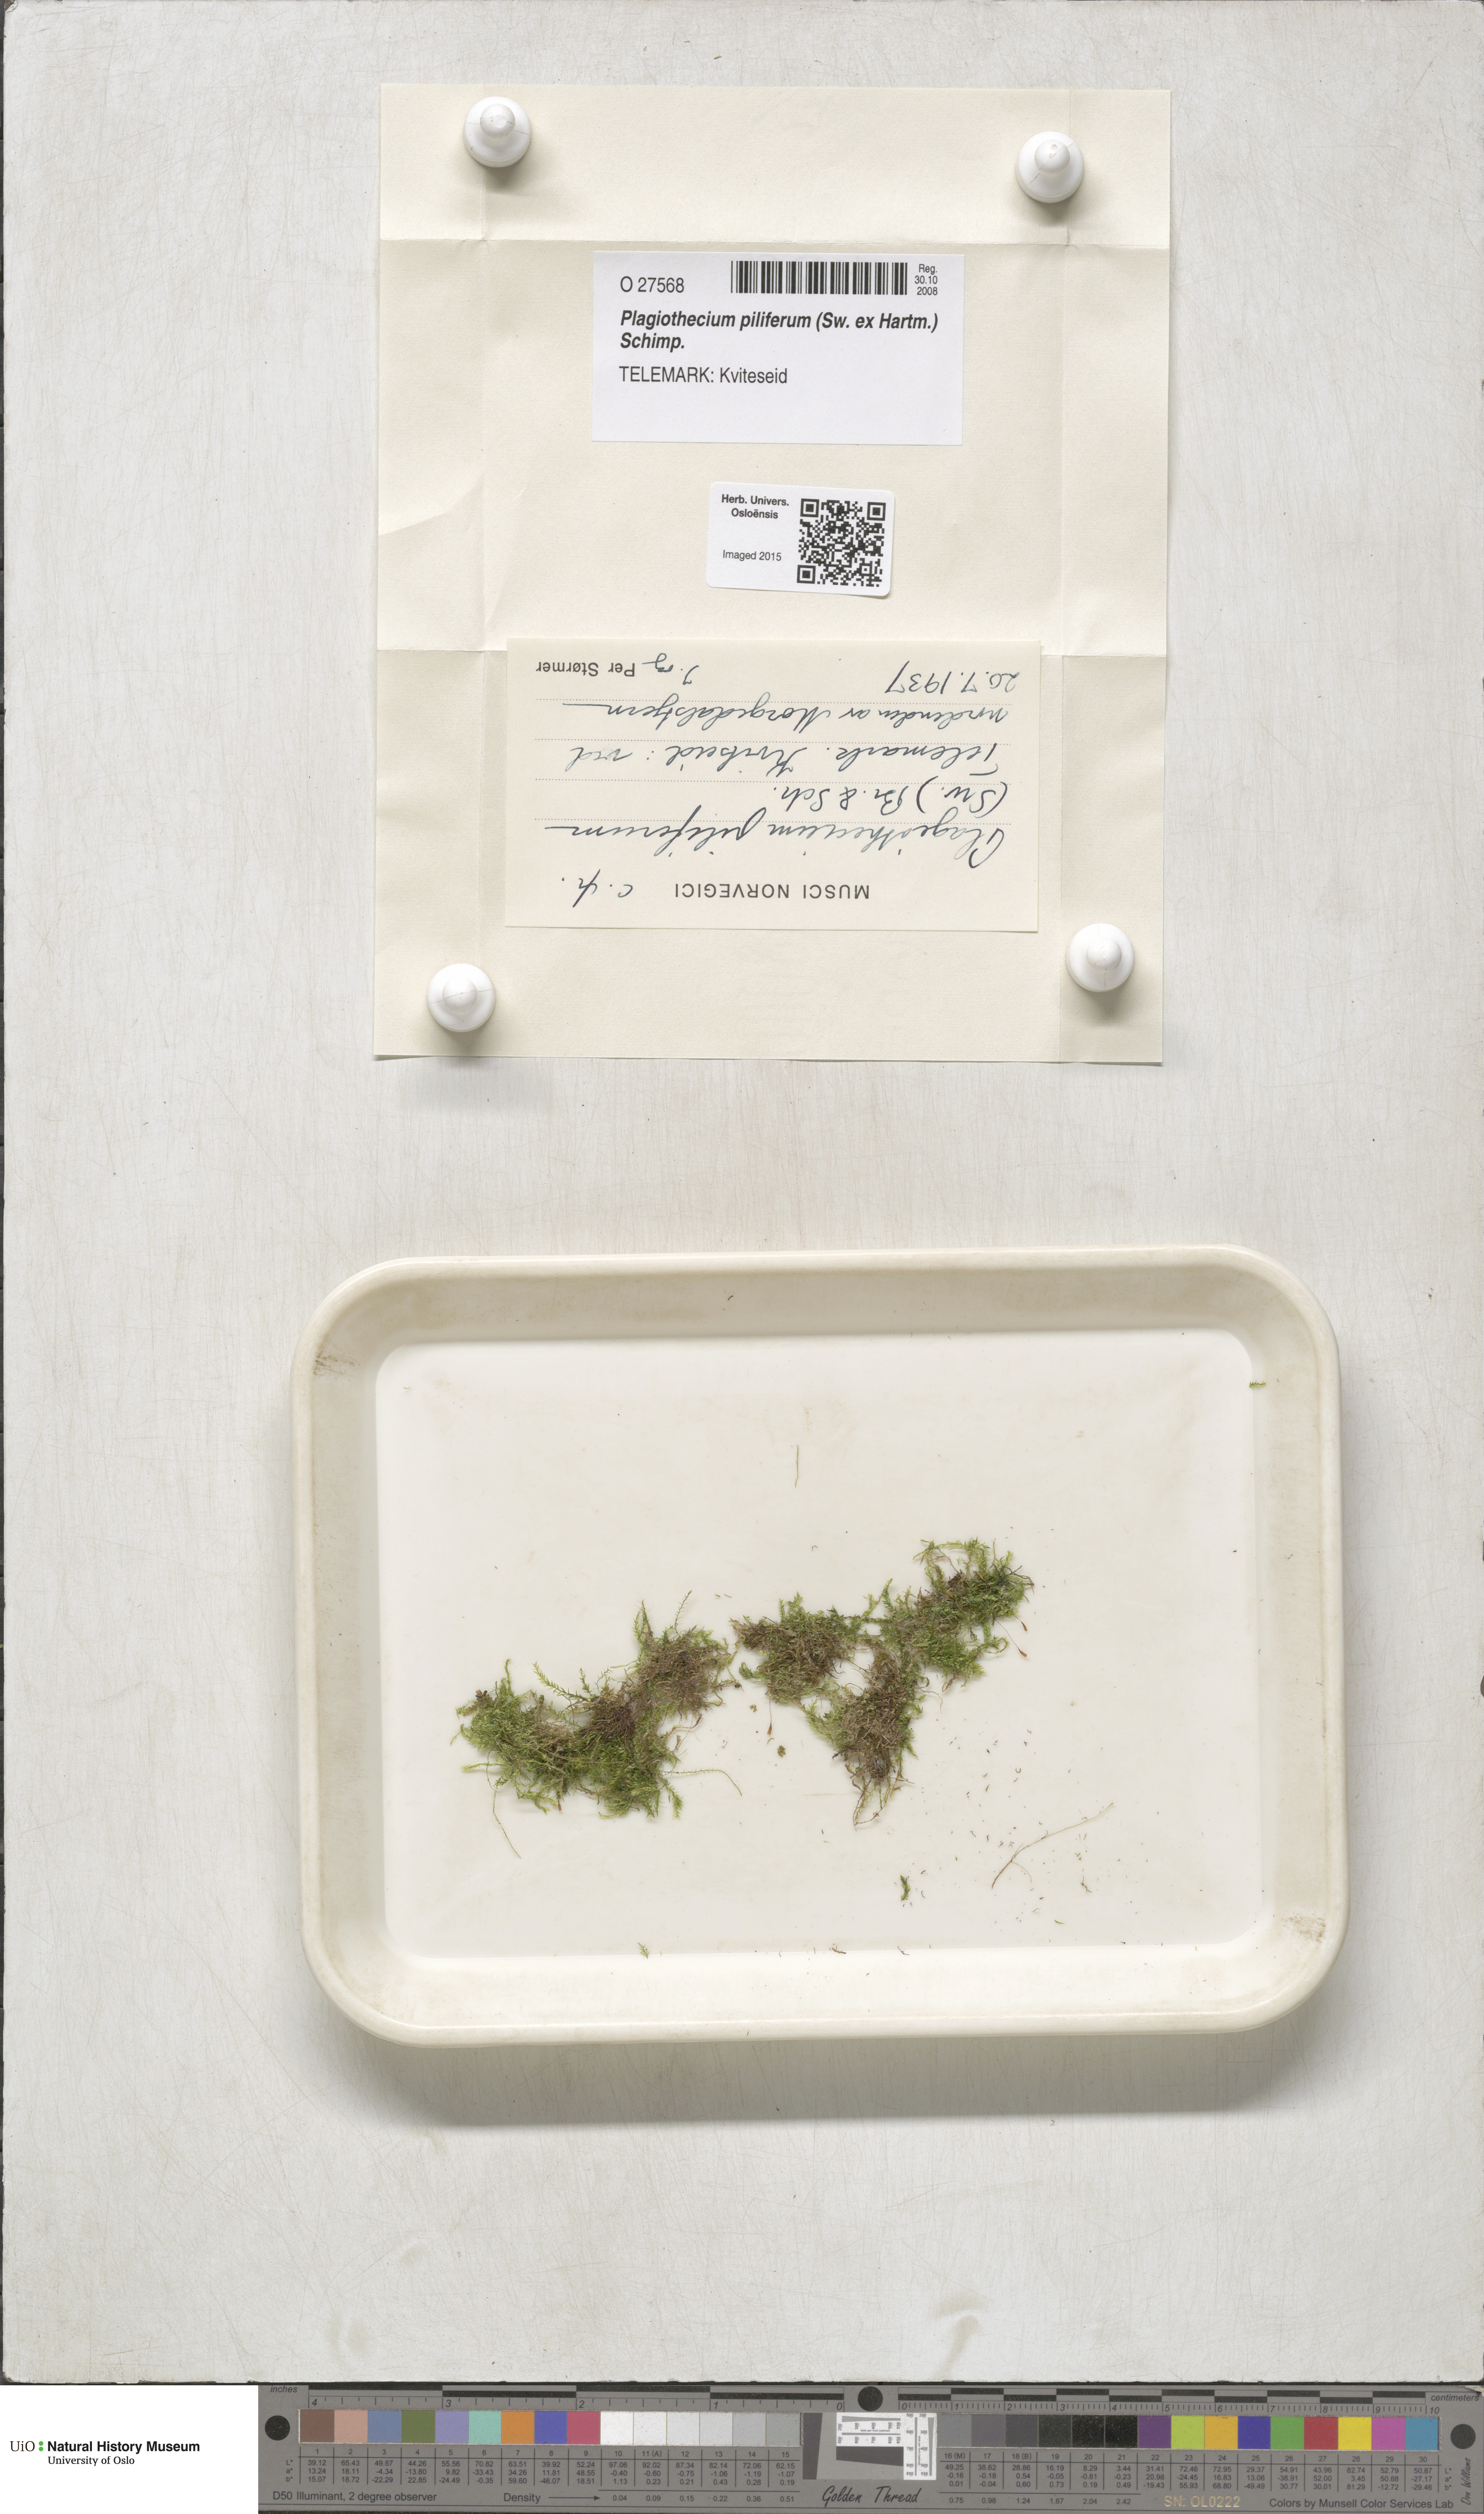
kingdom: Plantae
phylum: Bryophyta
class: Bryopsida
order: Hypnales
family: Plagiotheciaceae
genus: Rectithecium
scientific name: Rectithecium piliferum
